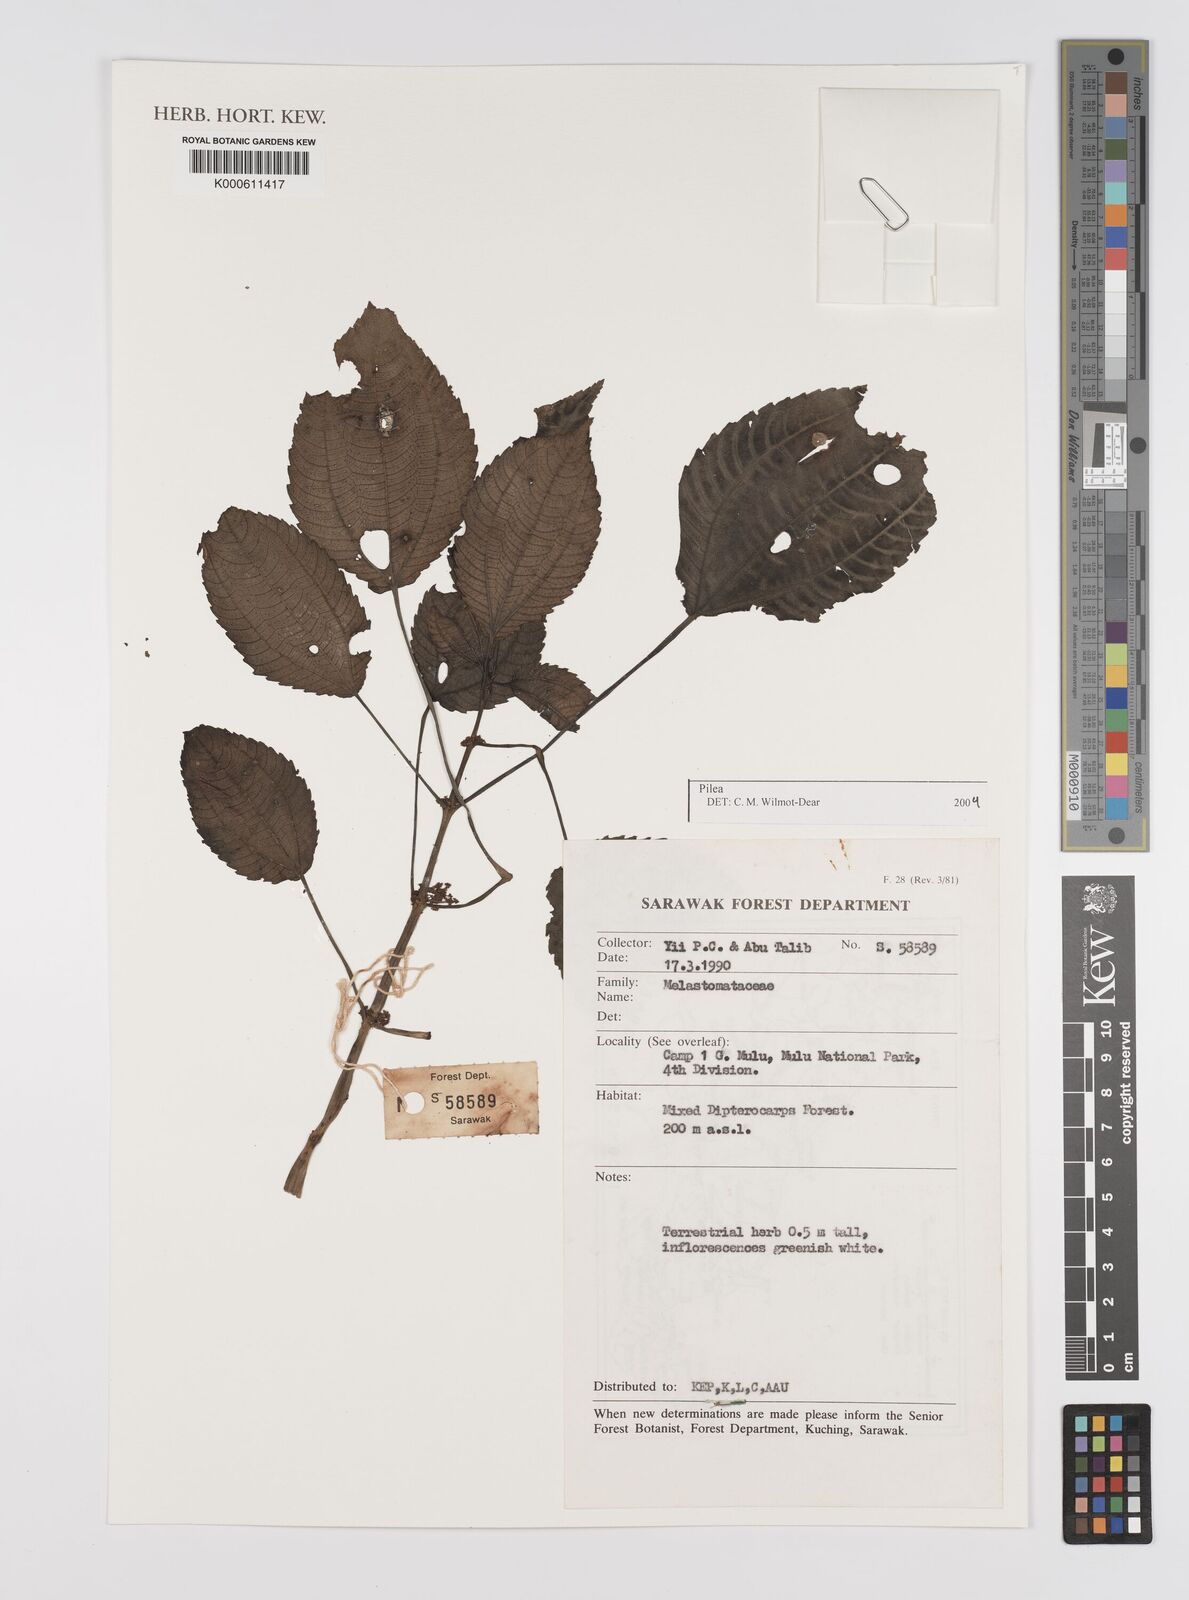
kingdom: Plantae
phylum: Tracheophyta
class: Magnoliopsida
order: Rosales
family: Urticaceae
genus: Pilea
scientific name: Pilea
